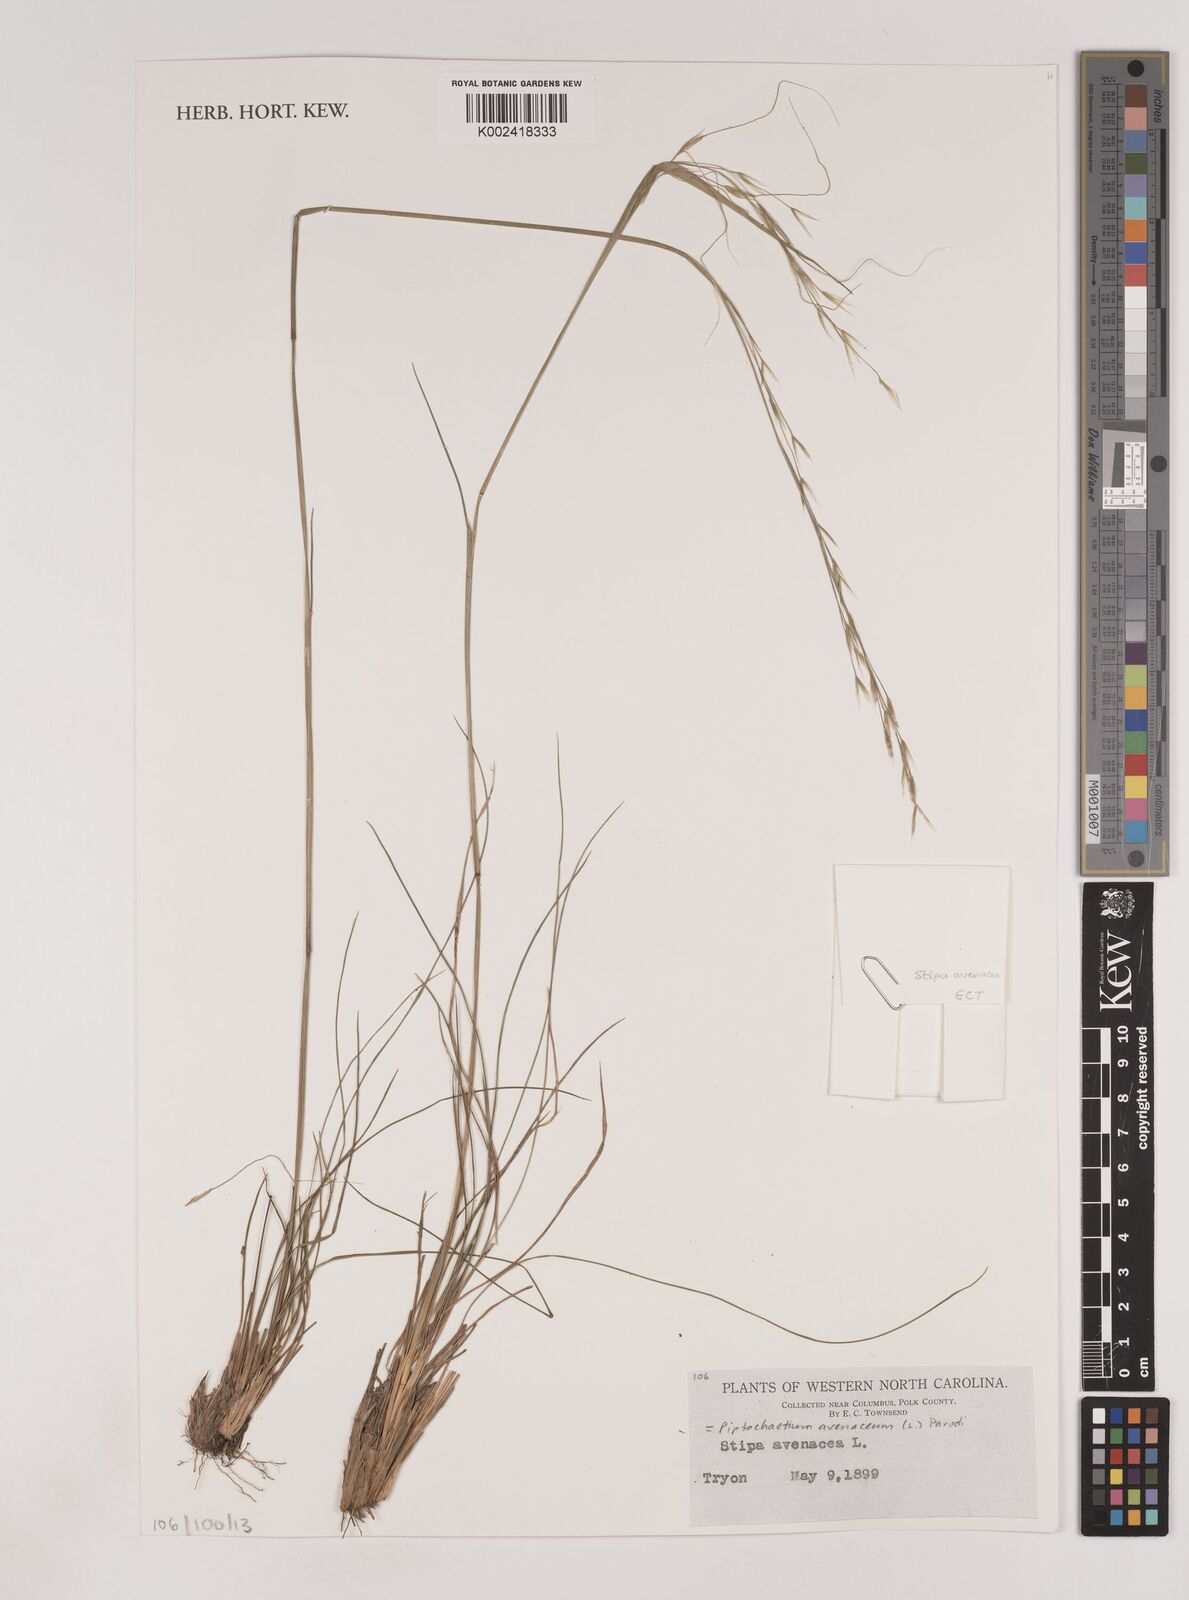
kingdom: Plantae
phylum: Tracheophyta
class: Liliopsida
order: Poales
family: Poaceae
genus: Piptochaetium
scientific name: Piptochaetium avenaceum
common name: Black bunchgrass
